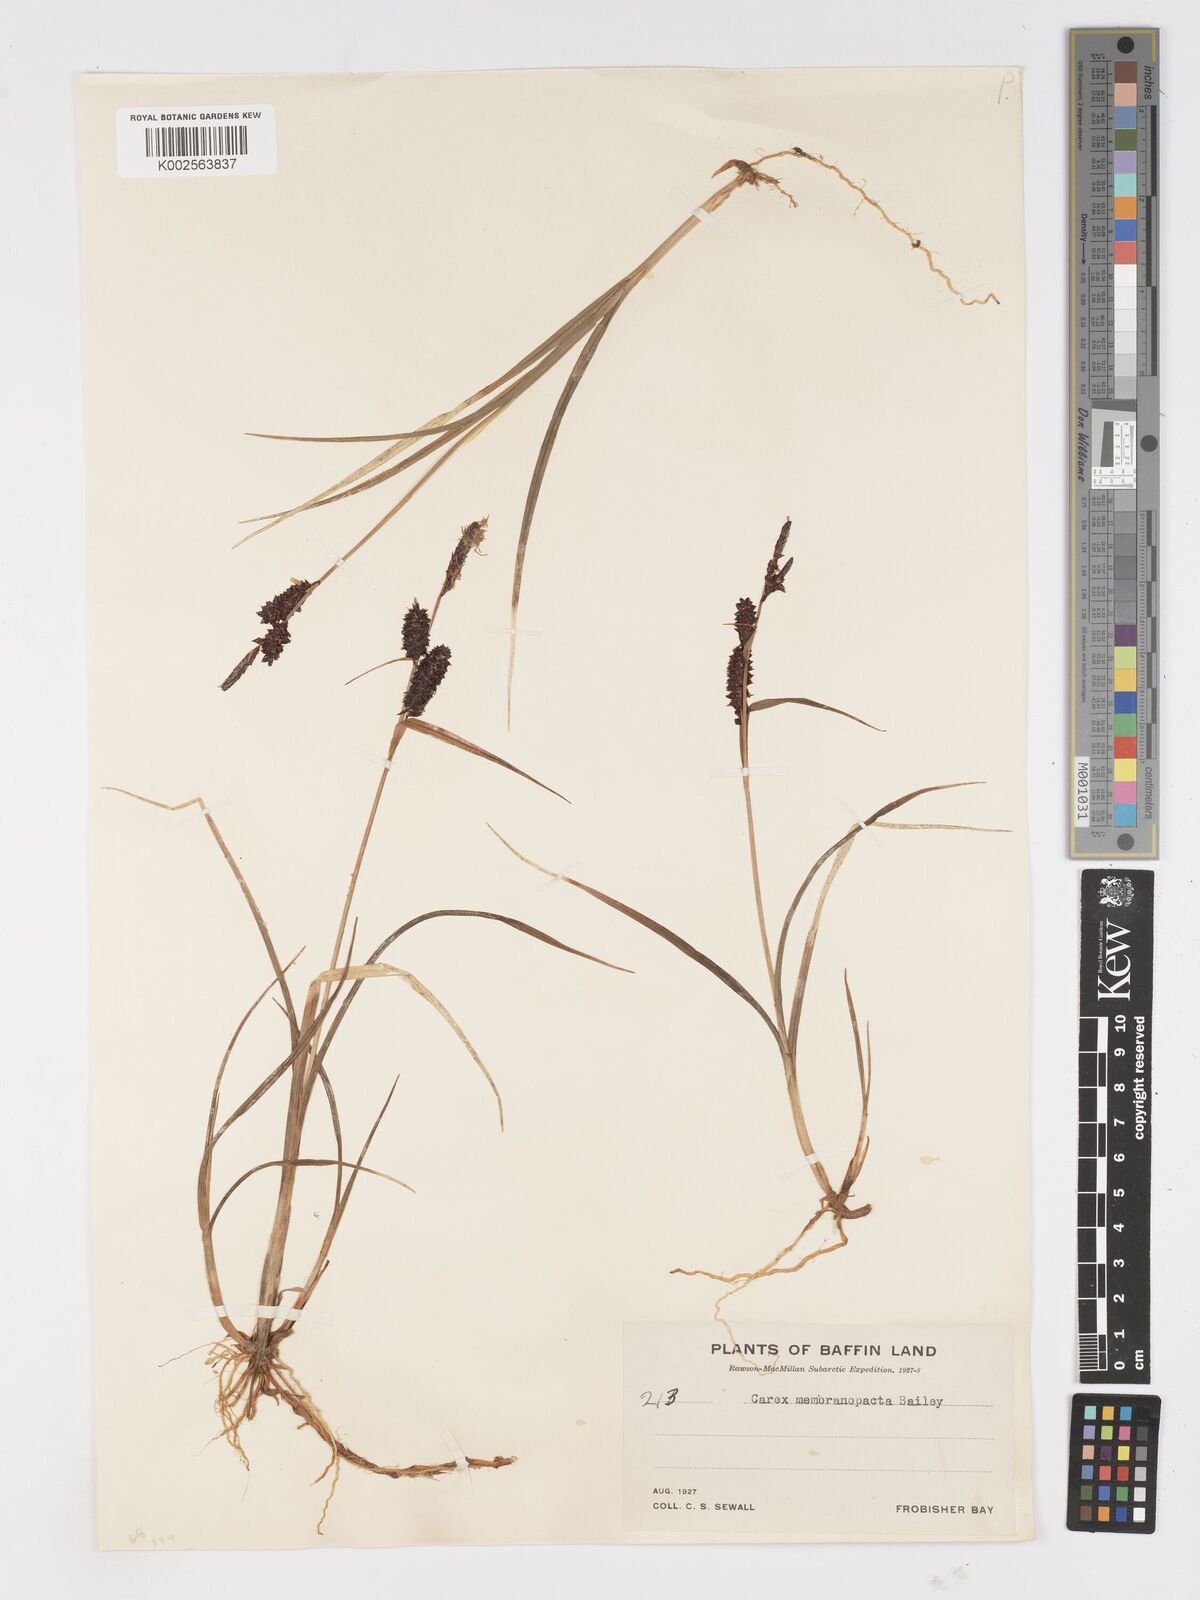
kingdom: Plantae
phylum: Tracheophyta
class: Liliopsida
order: Poales
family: Cyperaceae
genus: Carex
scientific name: Carex membranacea
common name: Fragile sedge
